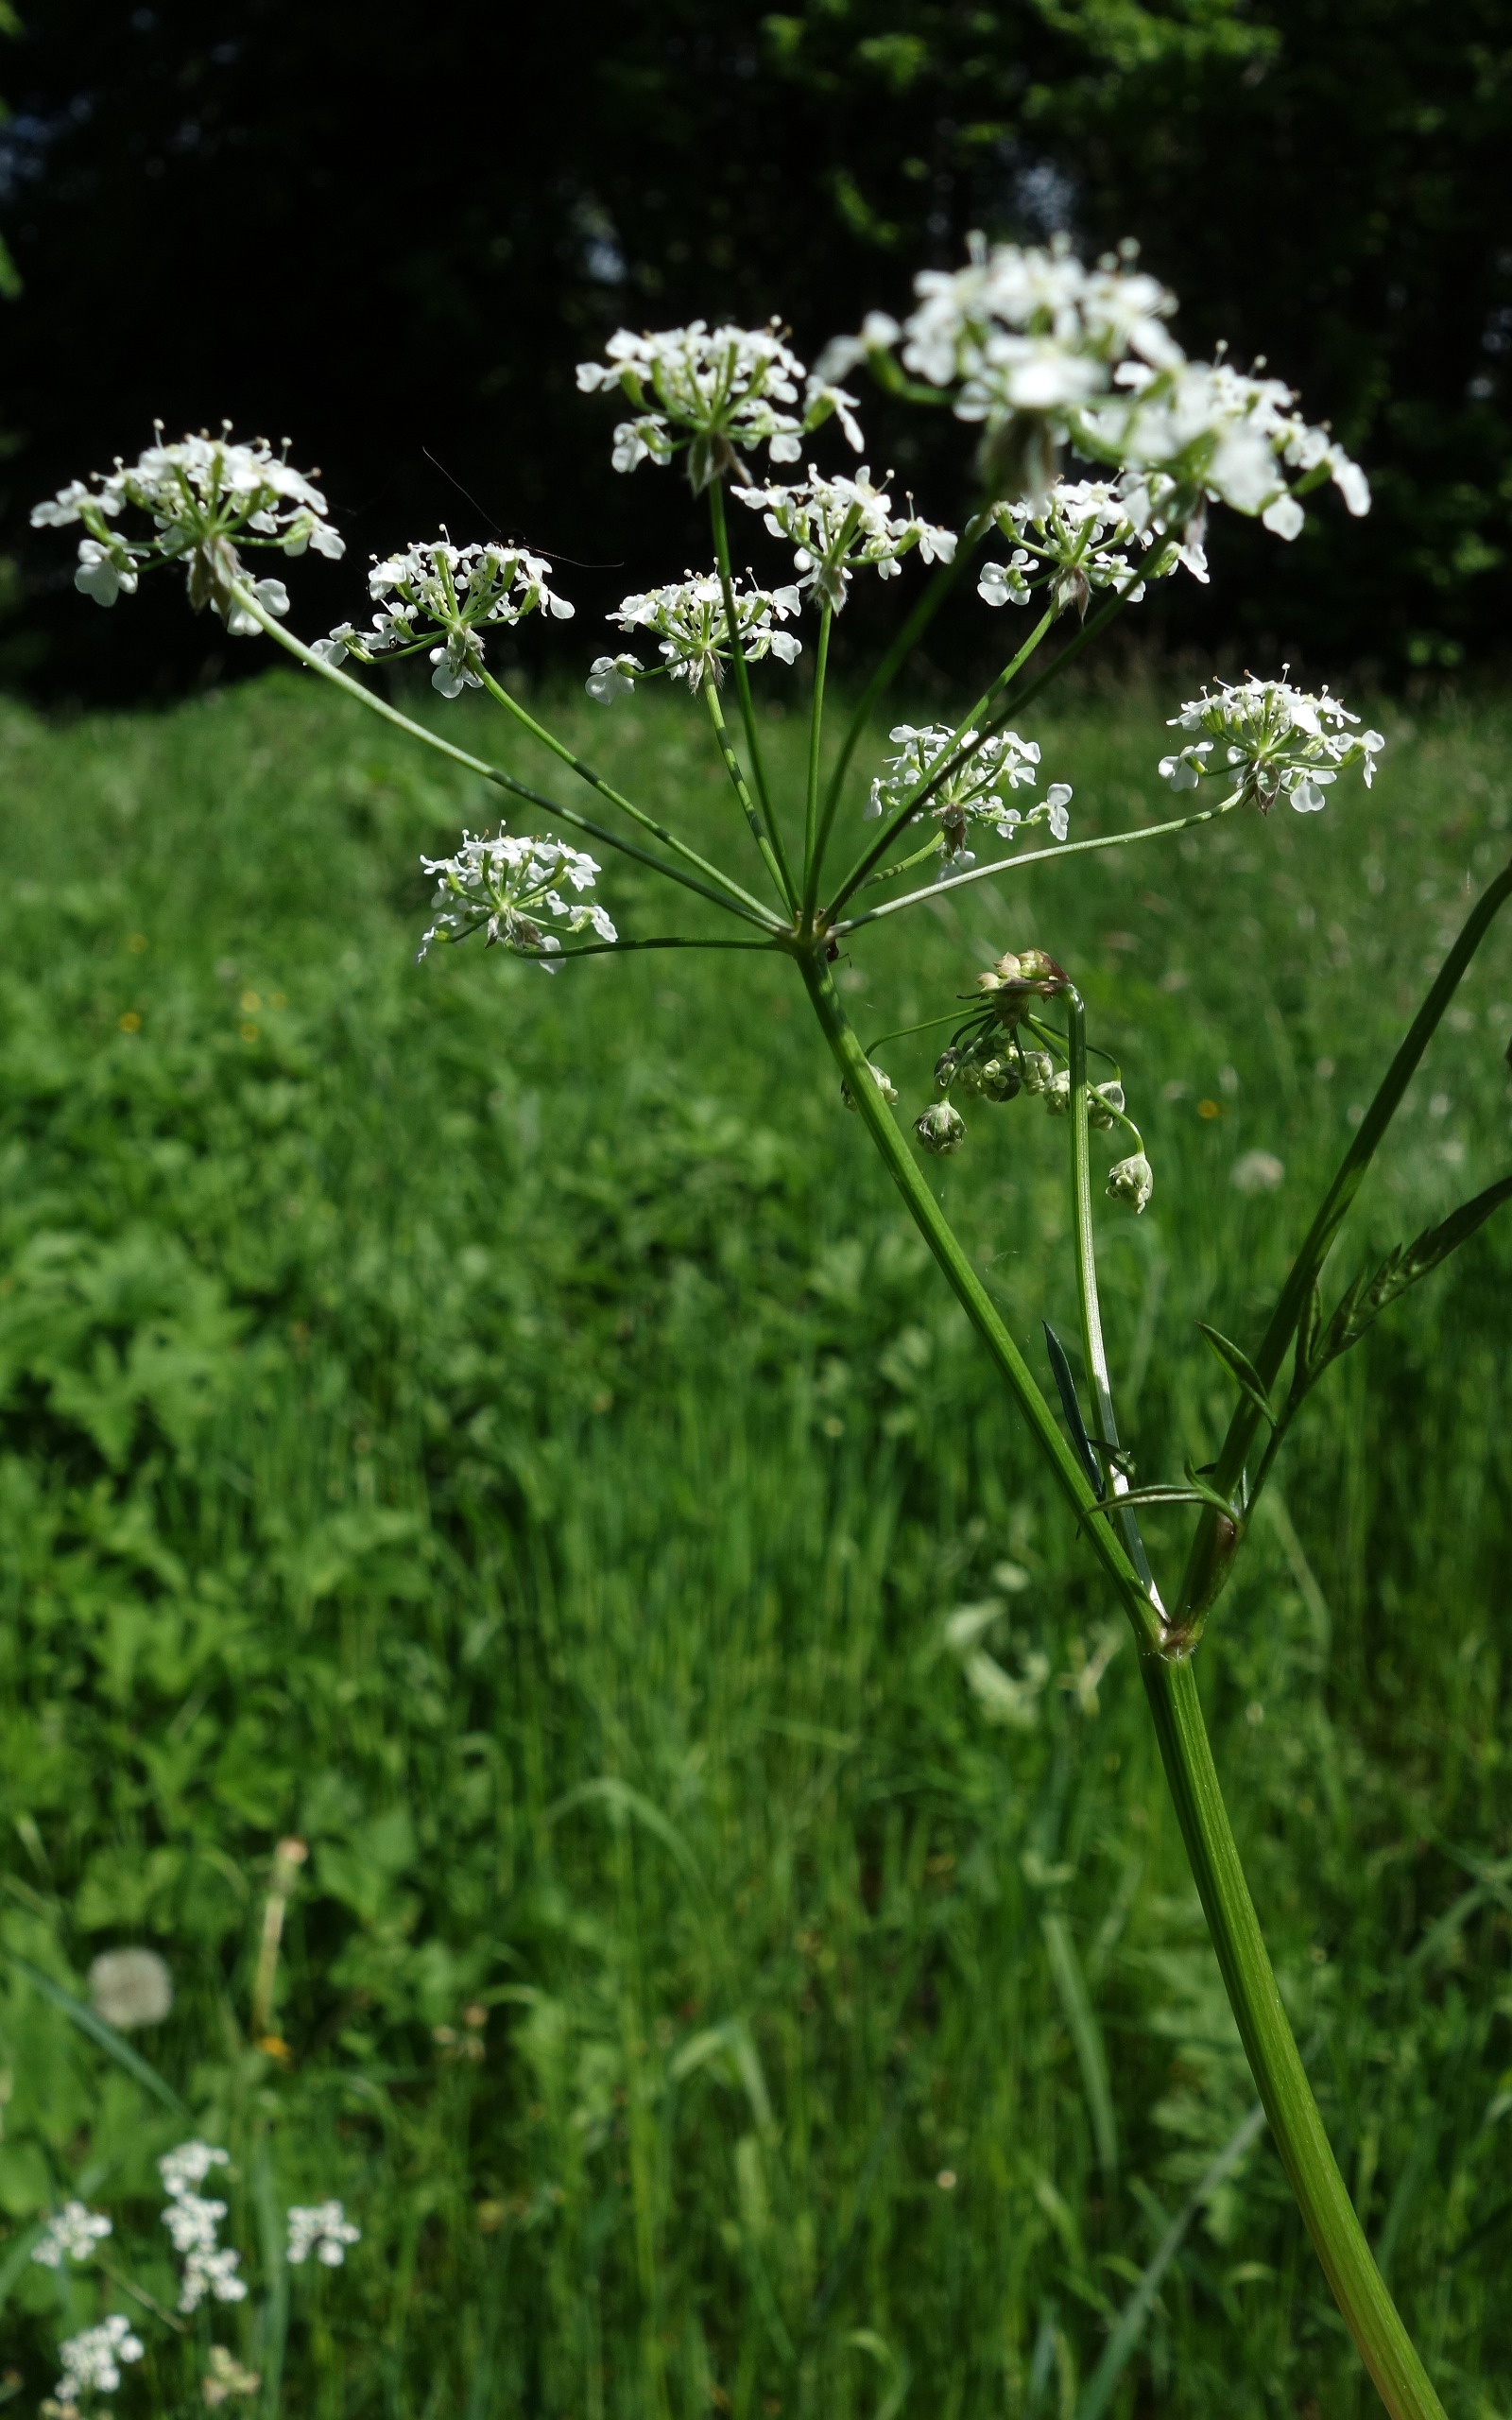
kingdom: Plantae
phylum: Tracheophyta
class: Magnoliopsida
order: Apiales
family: Apiaceae
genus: Anthriscus
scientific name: Anthriscus sylvestris
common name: Vild kørvel
